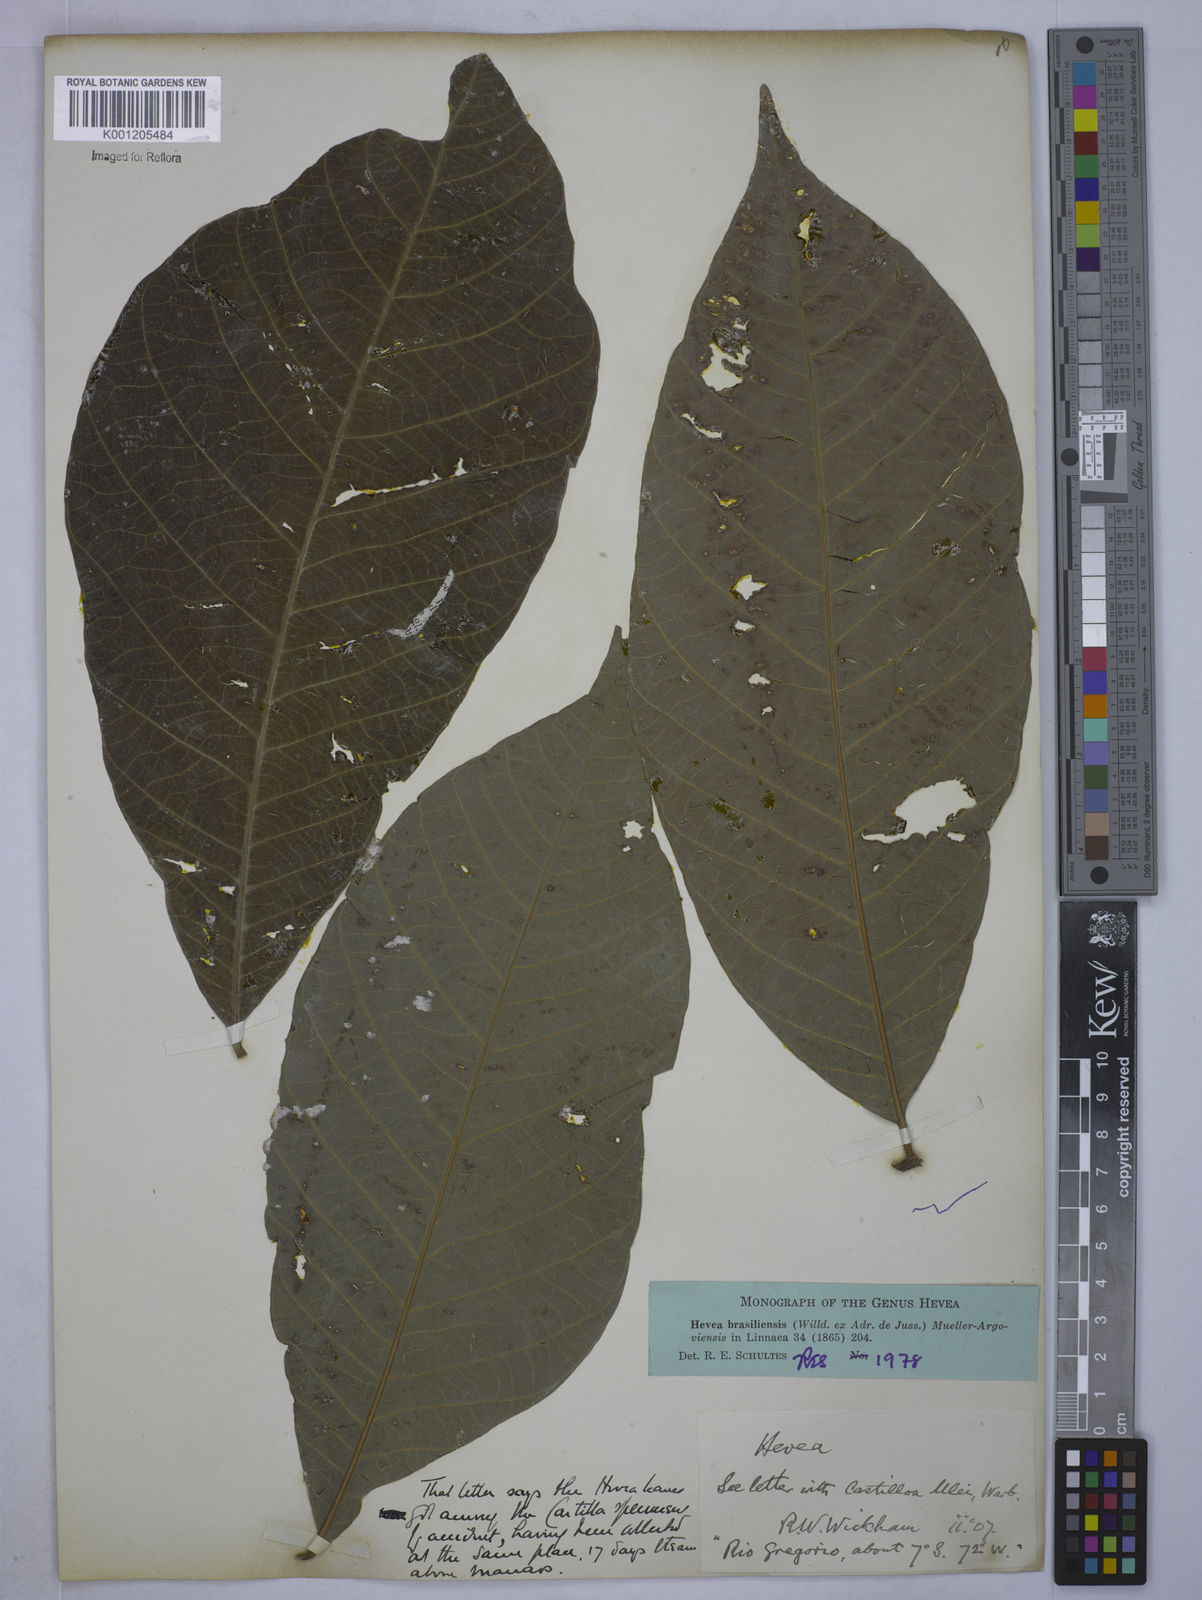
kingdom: Plantae
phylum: Tracheophyta
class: Magnoliopsida
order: Malpighiales
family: Euphorbiaceae
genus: Hevea
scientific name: Hevea
